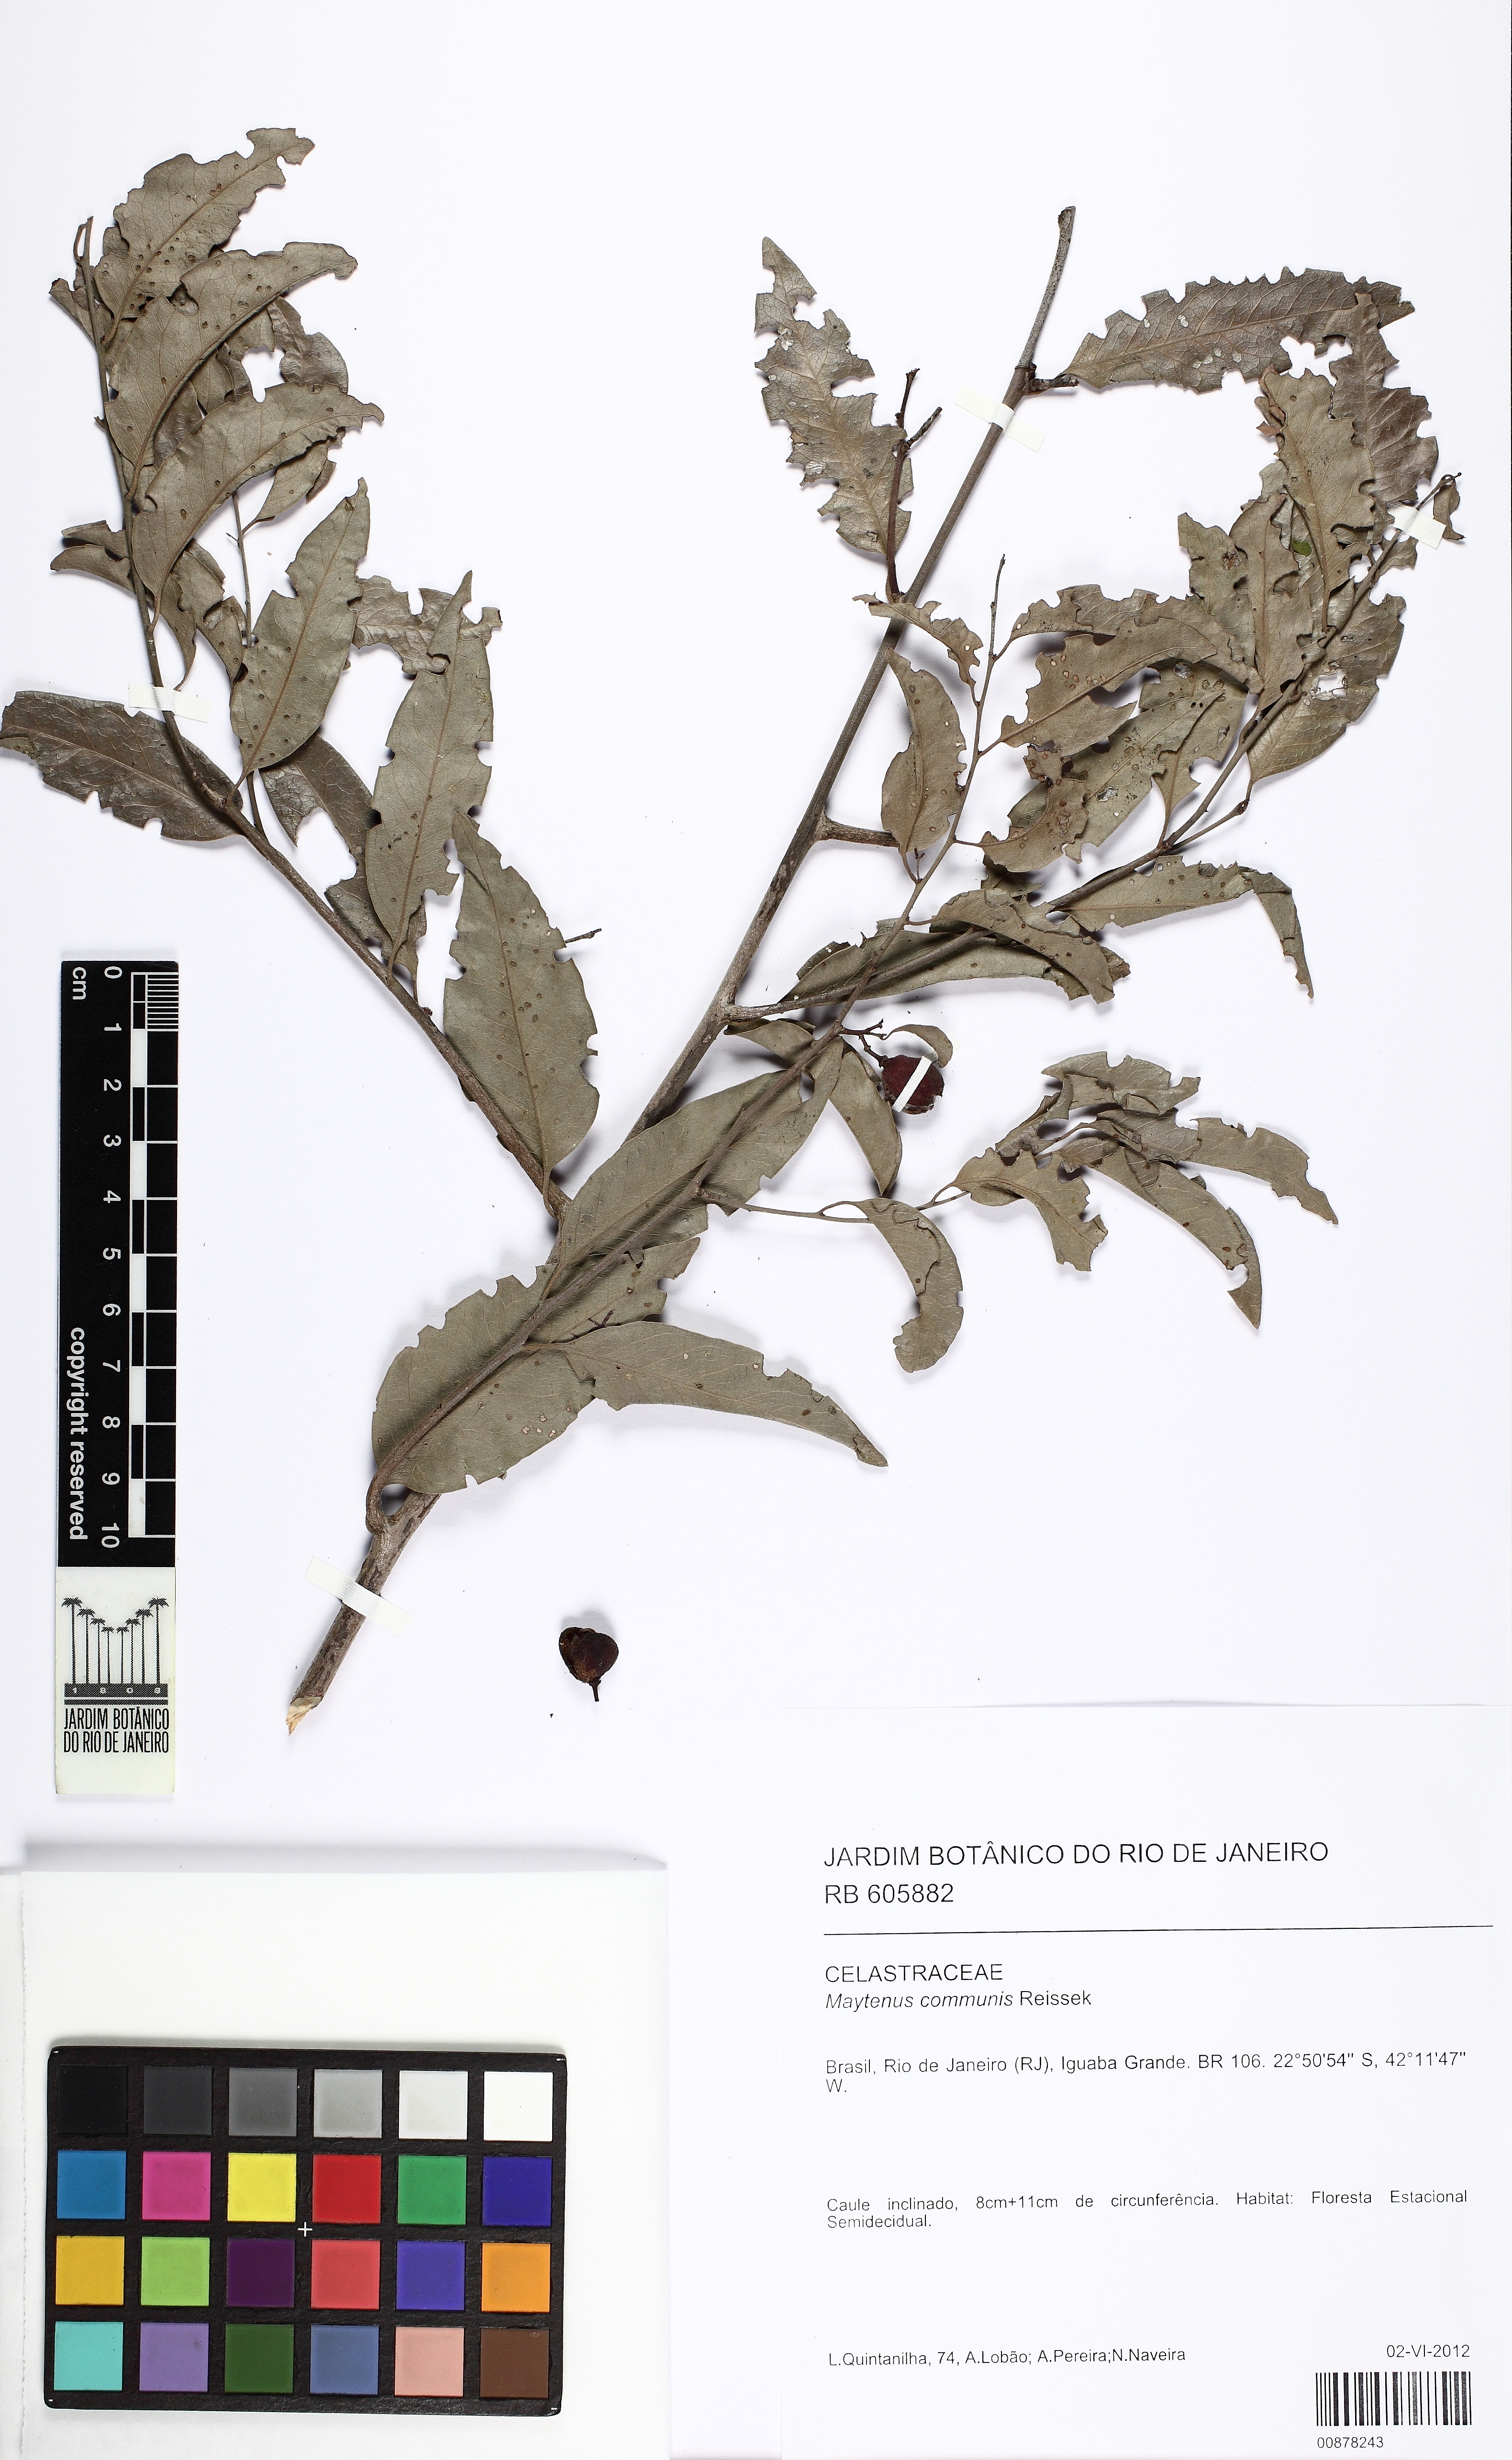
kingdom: Plantae
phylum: Tracheophyta
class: Magnoliopsida
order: Celastrales
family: Celastraceae
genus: Monteverdia
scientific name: Monteverdia communis
